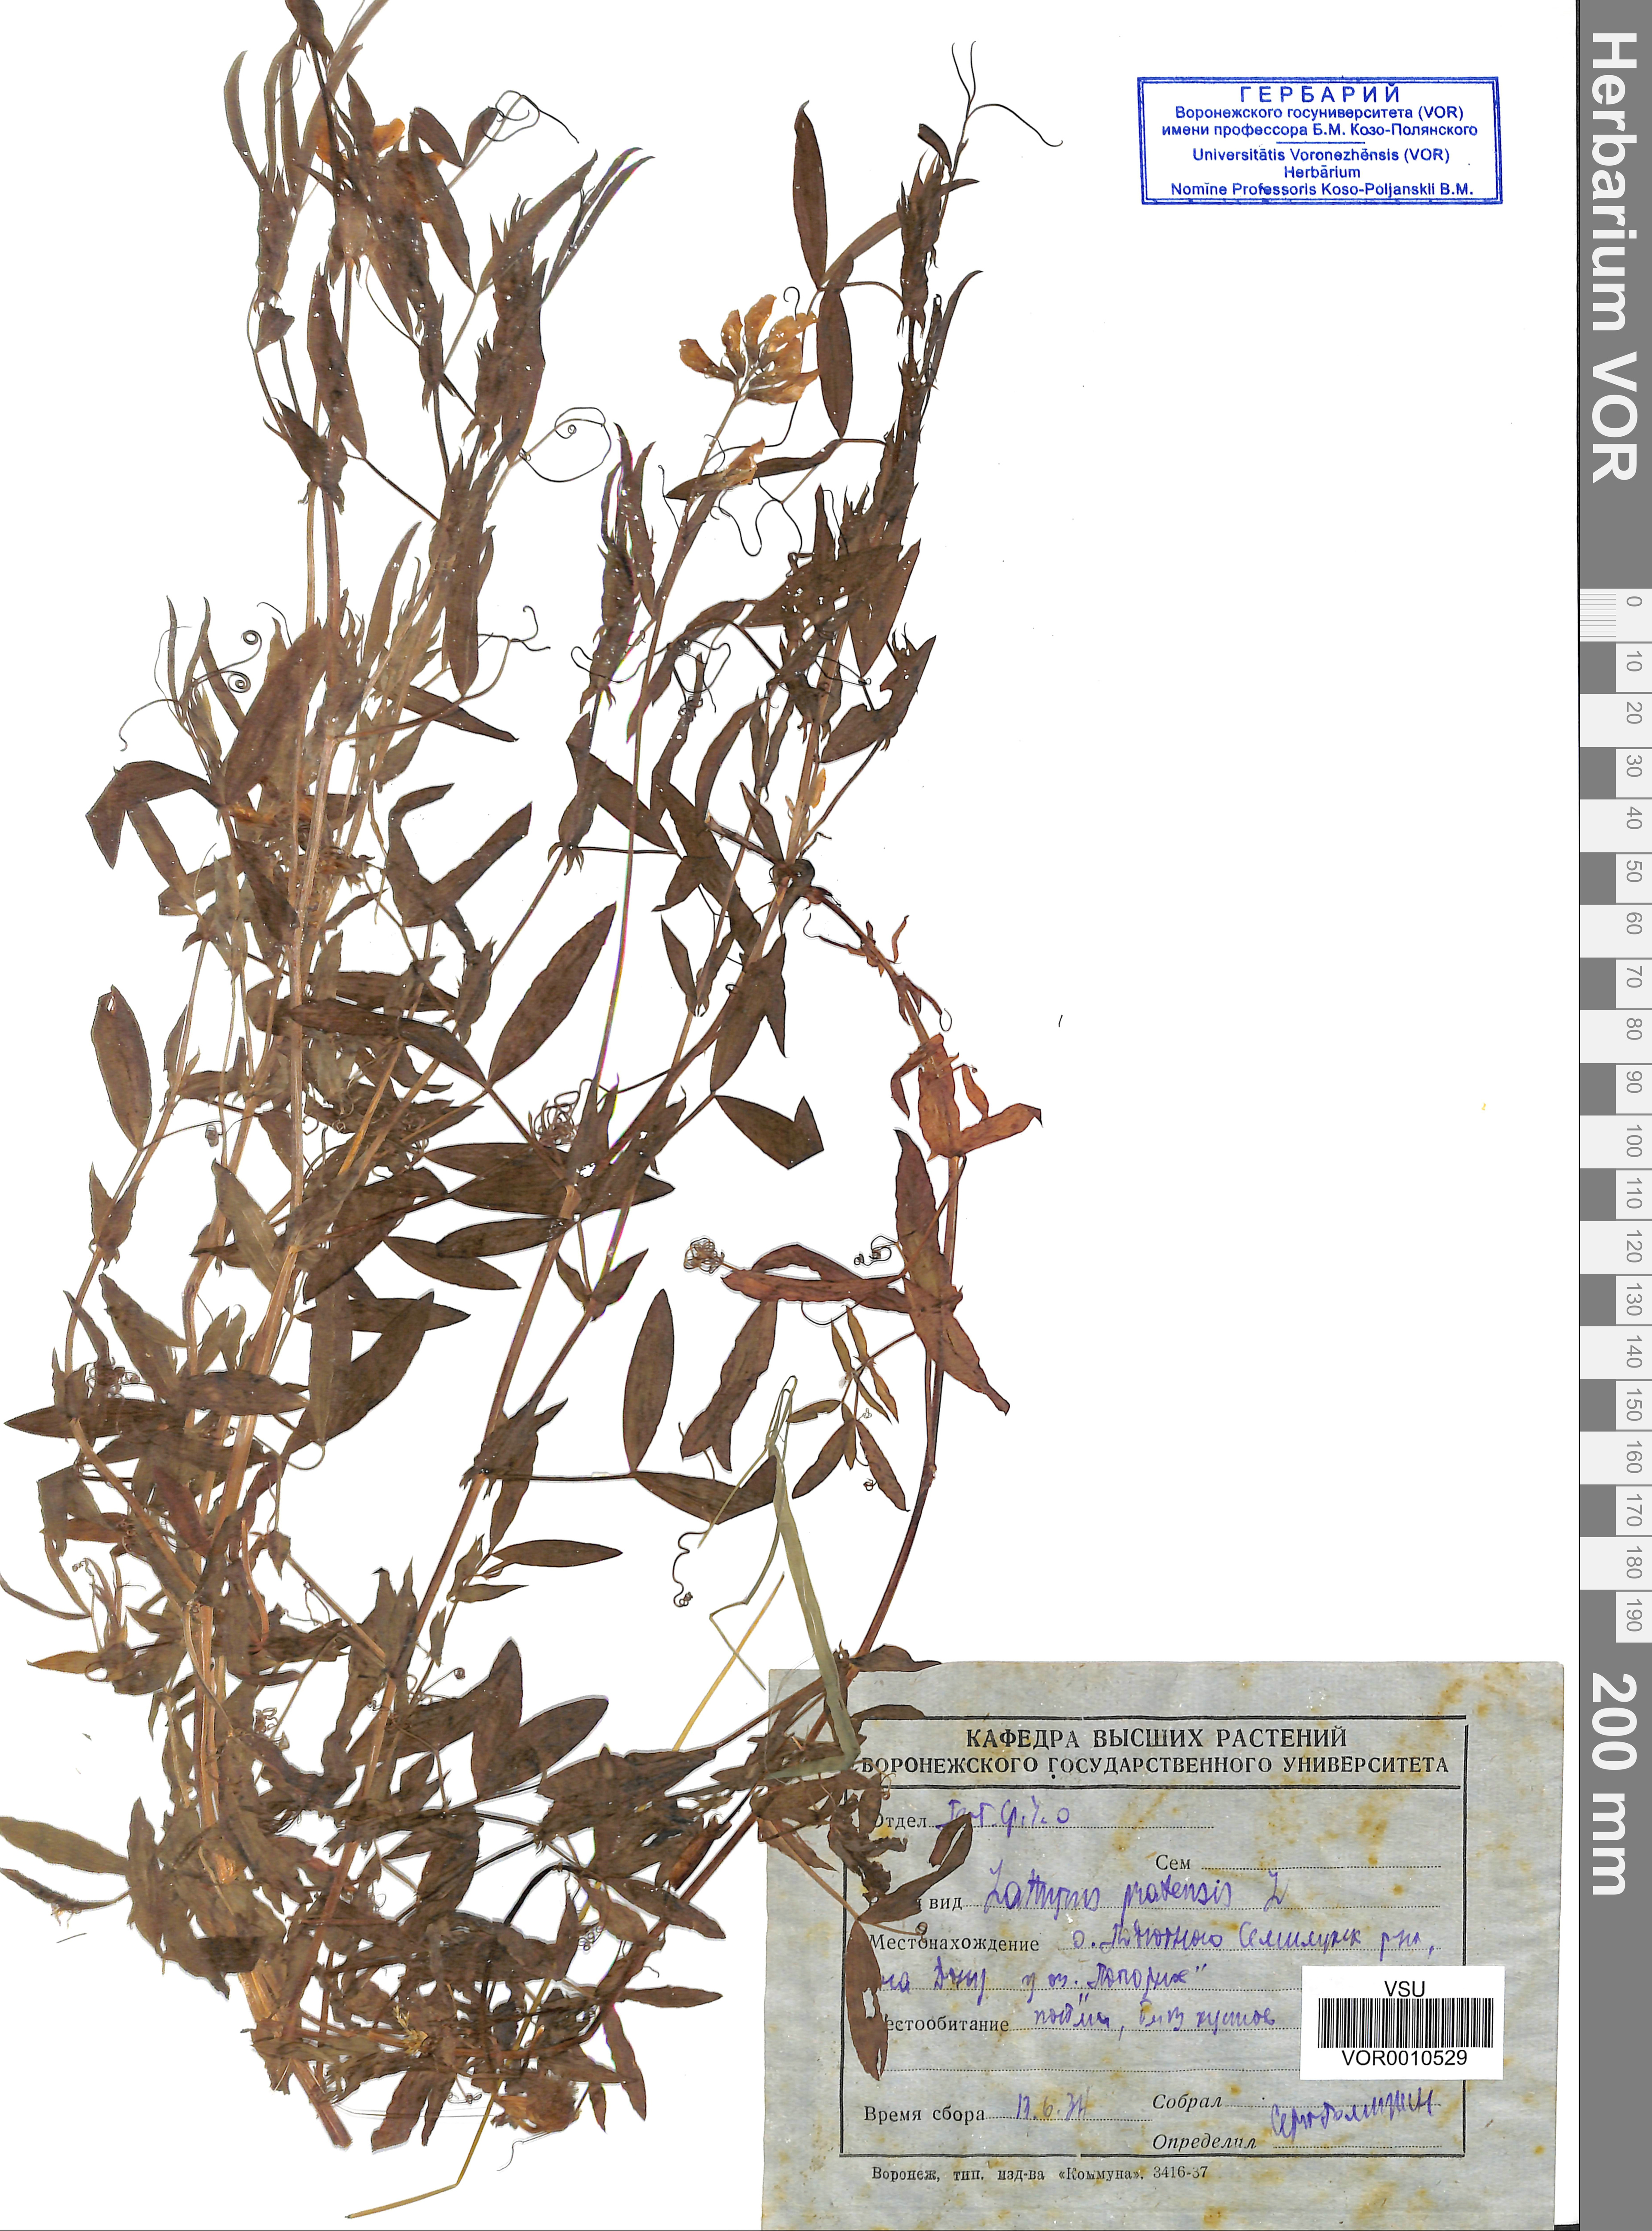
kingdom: Plantae
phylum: Tracheophyta
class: Magnoliopsida
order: Fabales
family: Fabaceae
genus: Lathyrus
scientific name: Lathyrus pratensis
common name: Meadow vetchling
